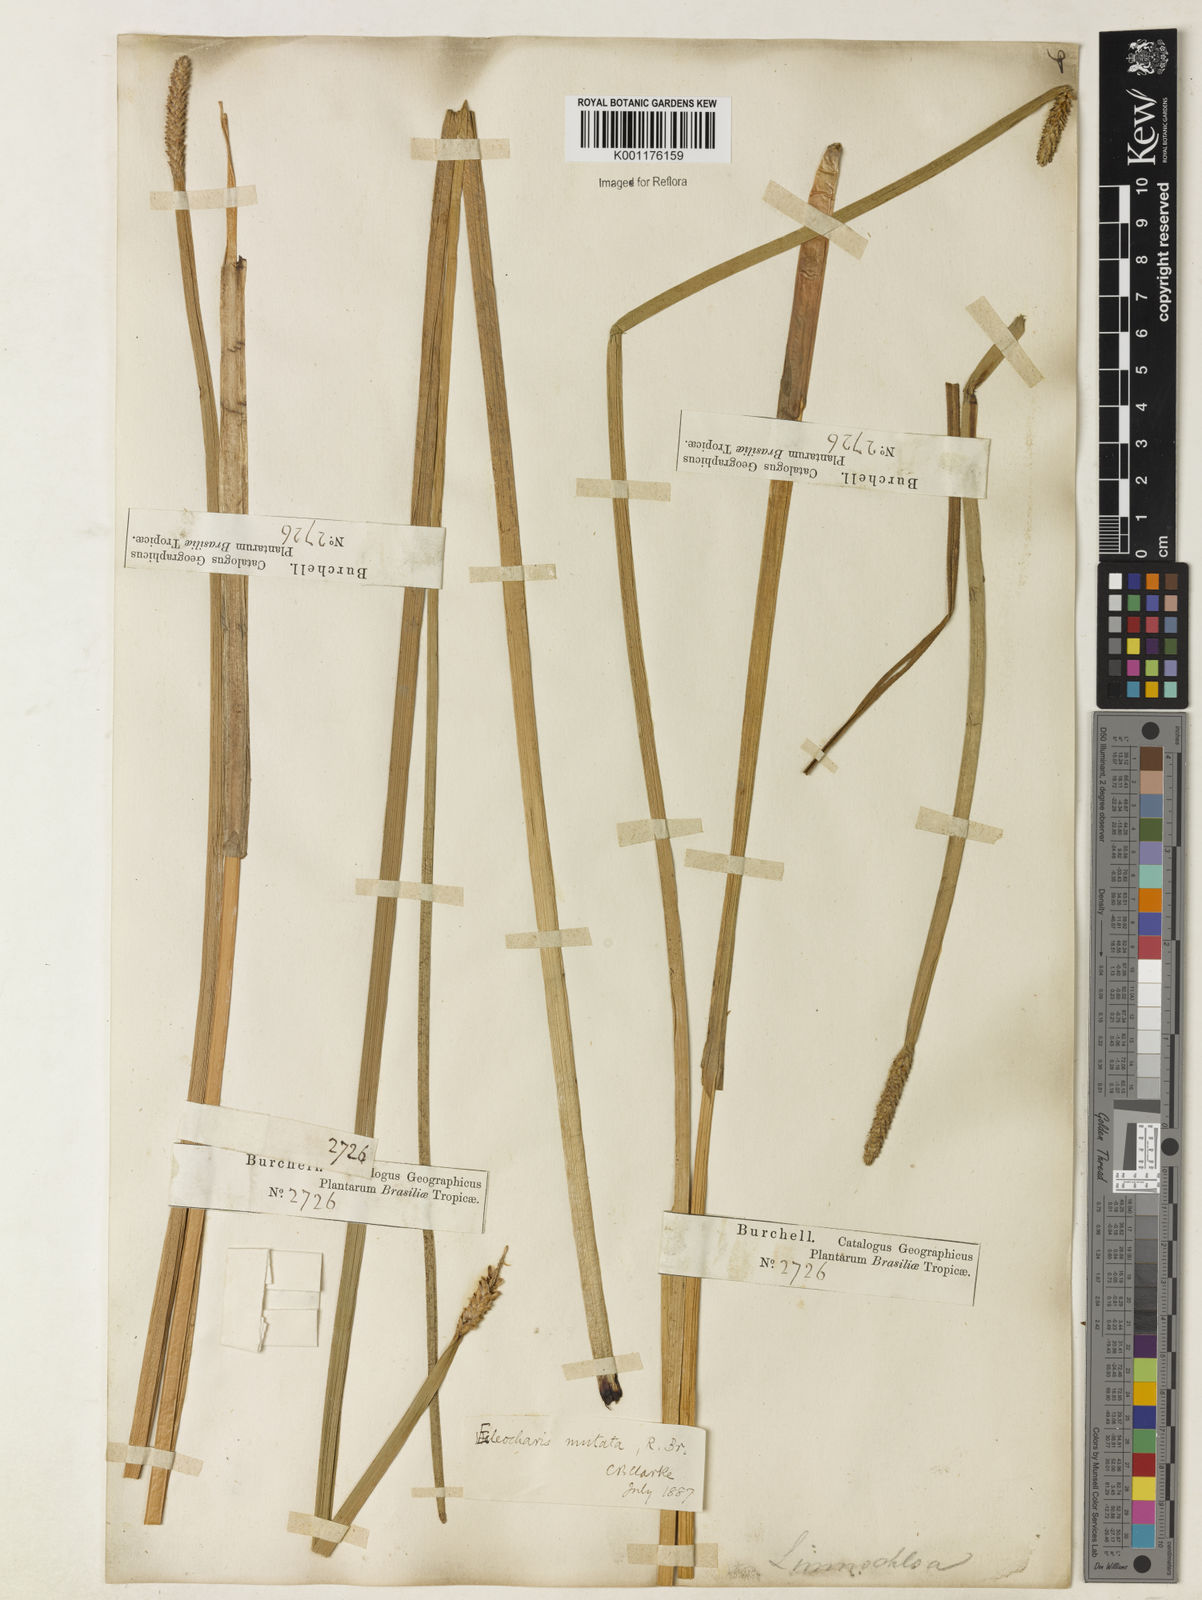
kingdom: Plantae
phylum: Tracheophyta
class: Liliopsida
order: Poales
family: Cyperaceae
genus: Eleocharis
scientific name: Eleocharis mutata
